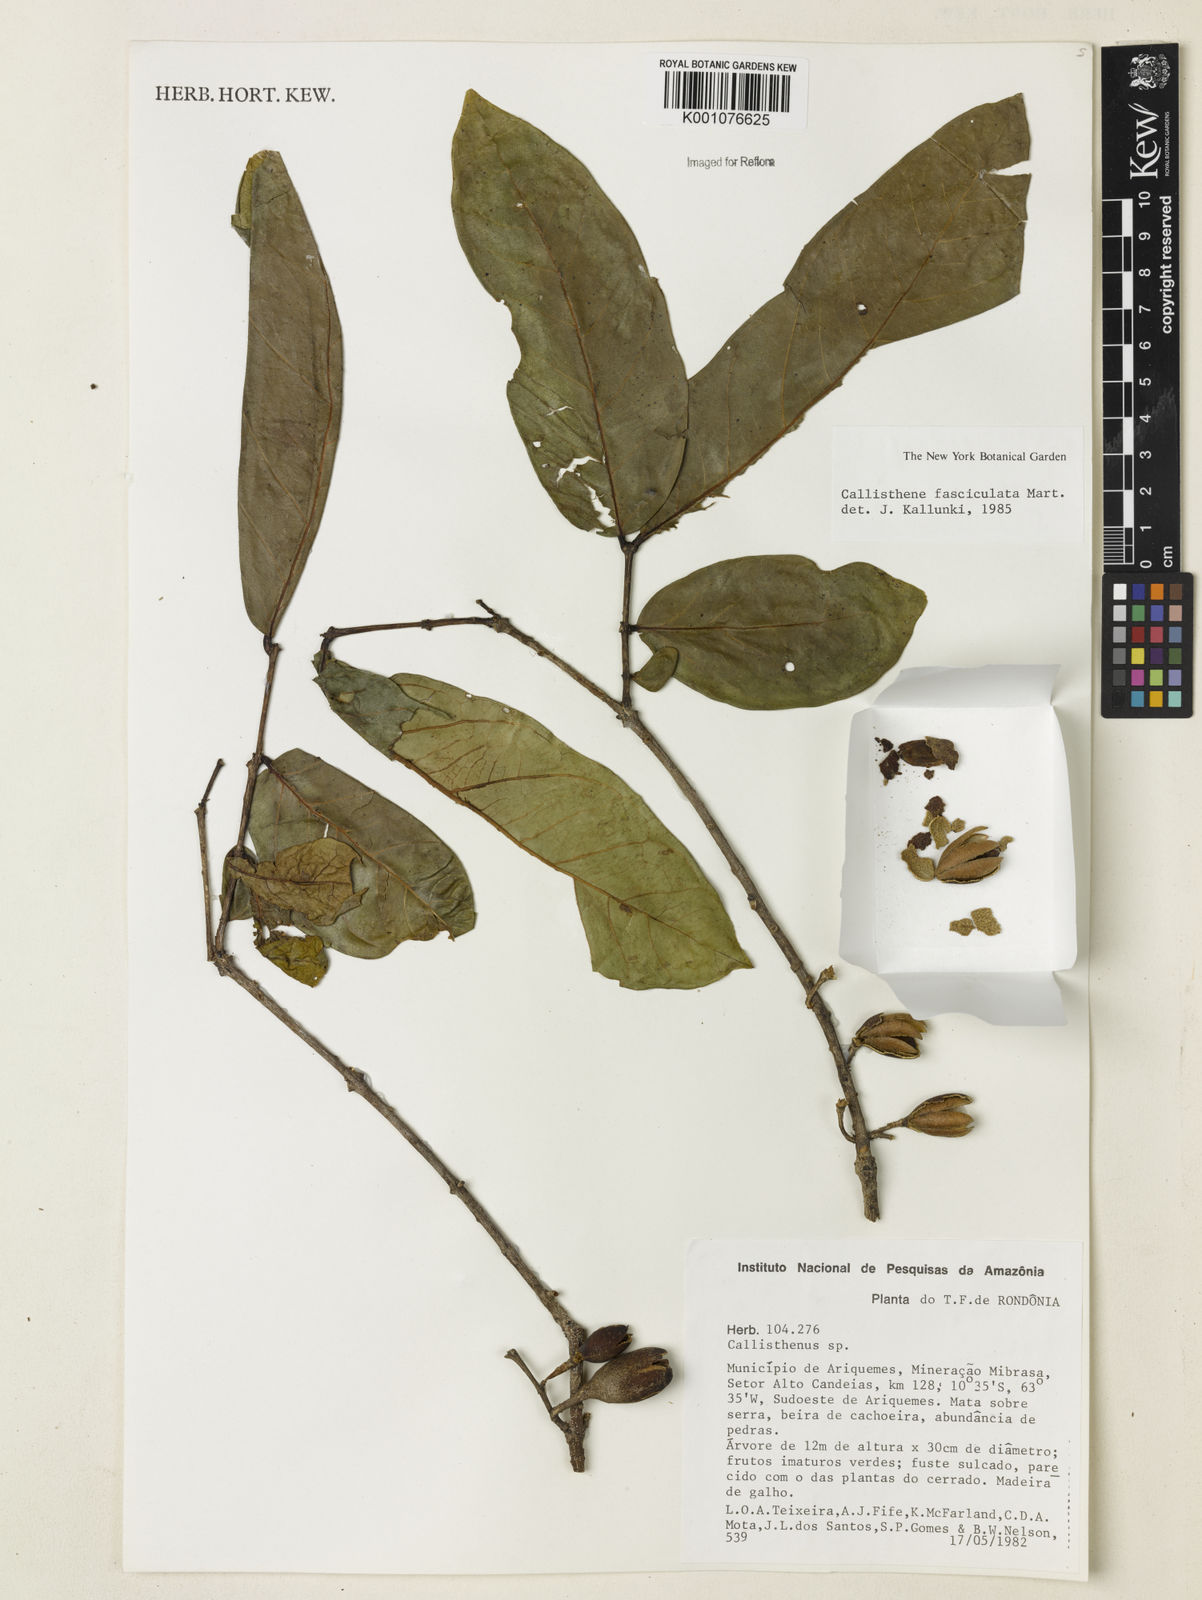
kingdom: Plantae
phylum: Tracheophyta
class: Magnoliopsida
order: Myrtales
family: Vochysiaceae
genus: Callisthene
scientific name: Callisthene fasciculata
